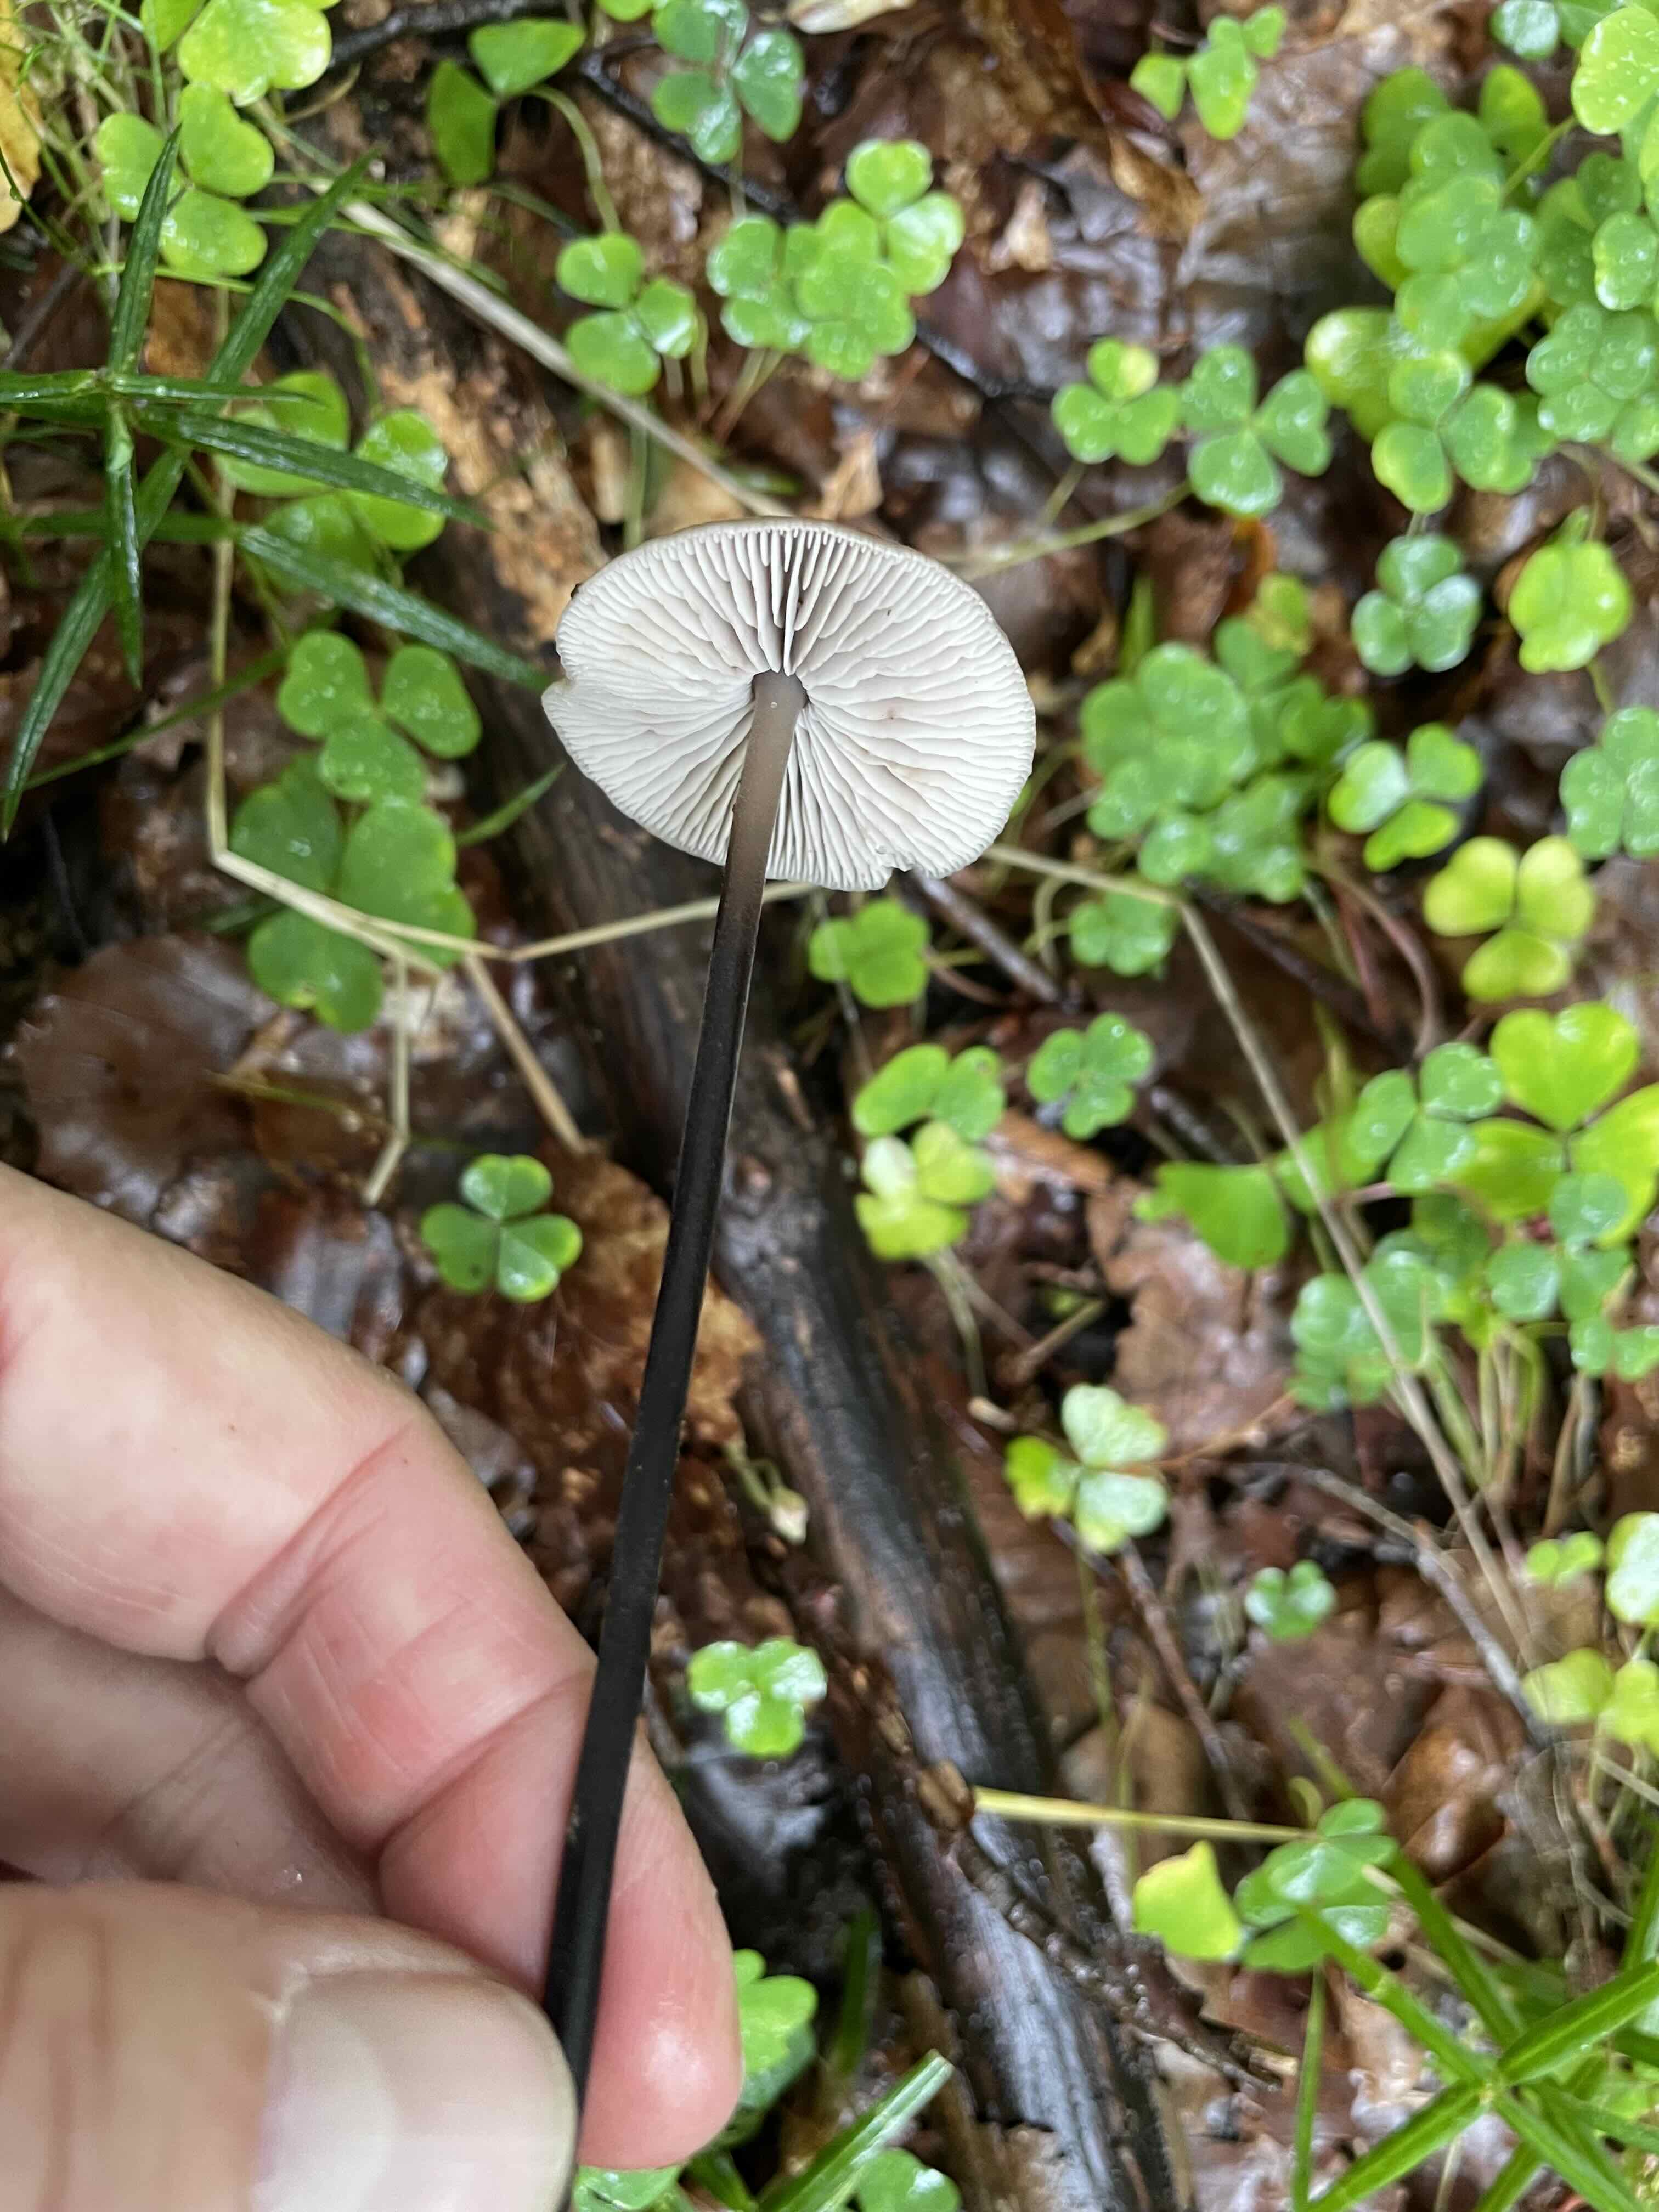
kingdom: Fungi
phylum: Basidiomycota
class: Agaricomycetes
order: Agaricales
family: Omphalotaceae
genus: Mycetinis
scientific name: Mycetinis alliaceus
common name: stor løghat
